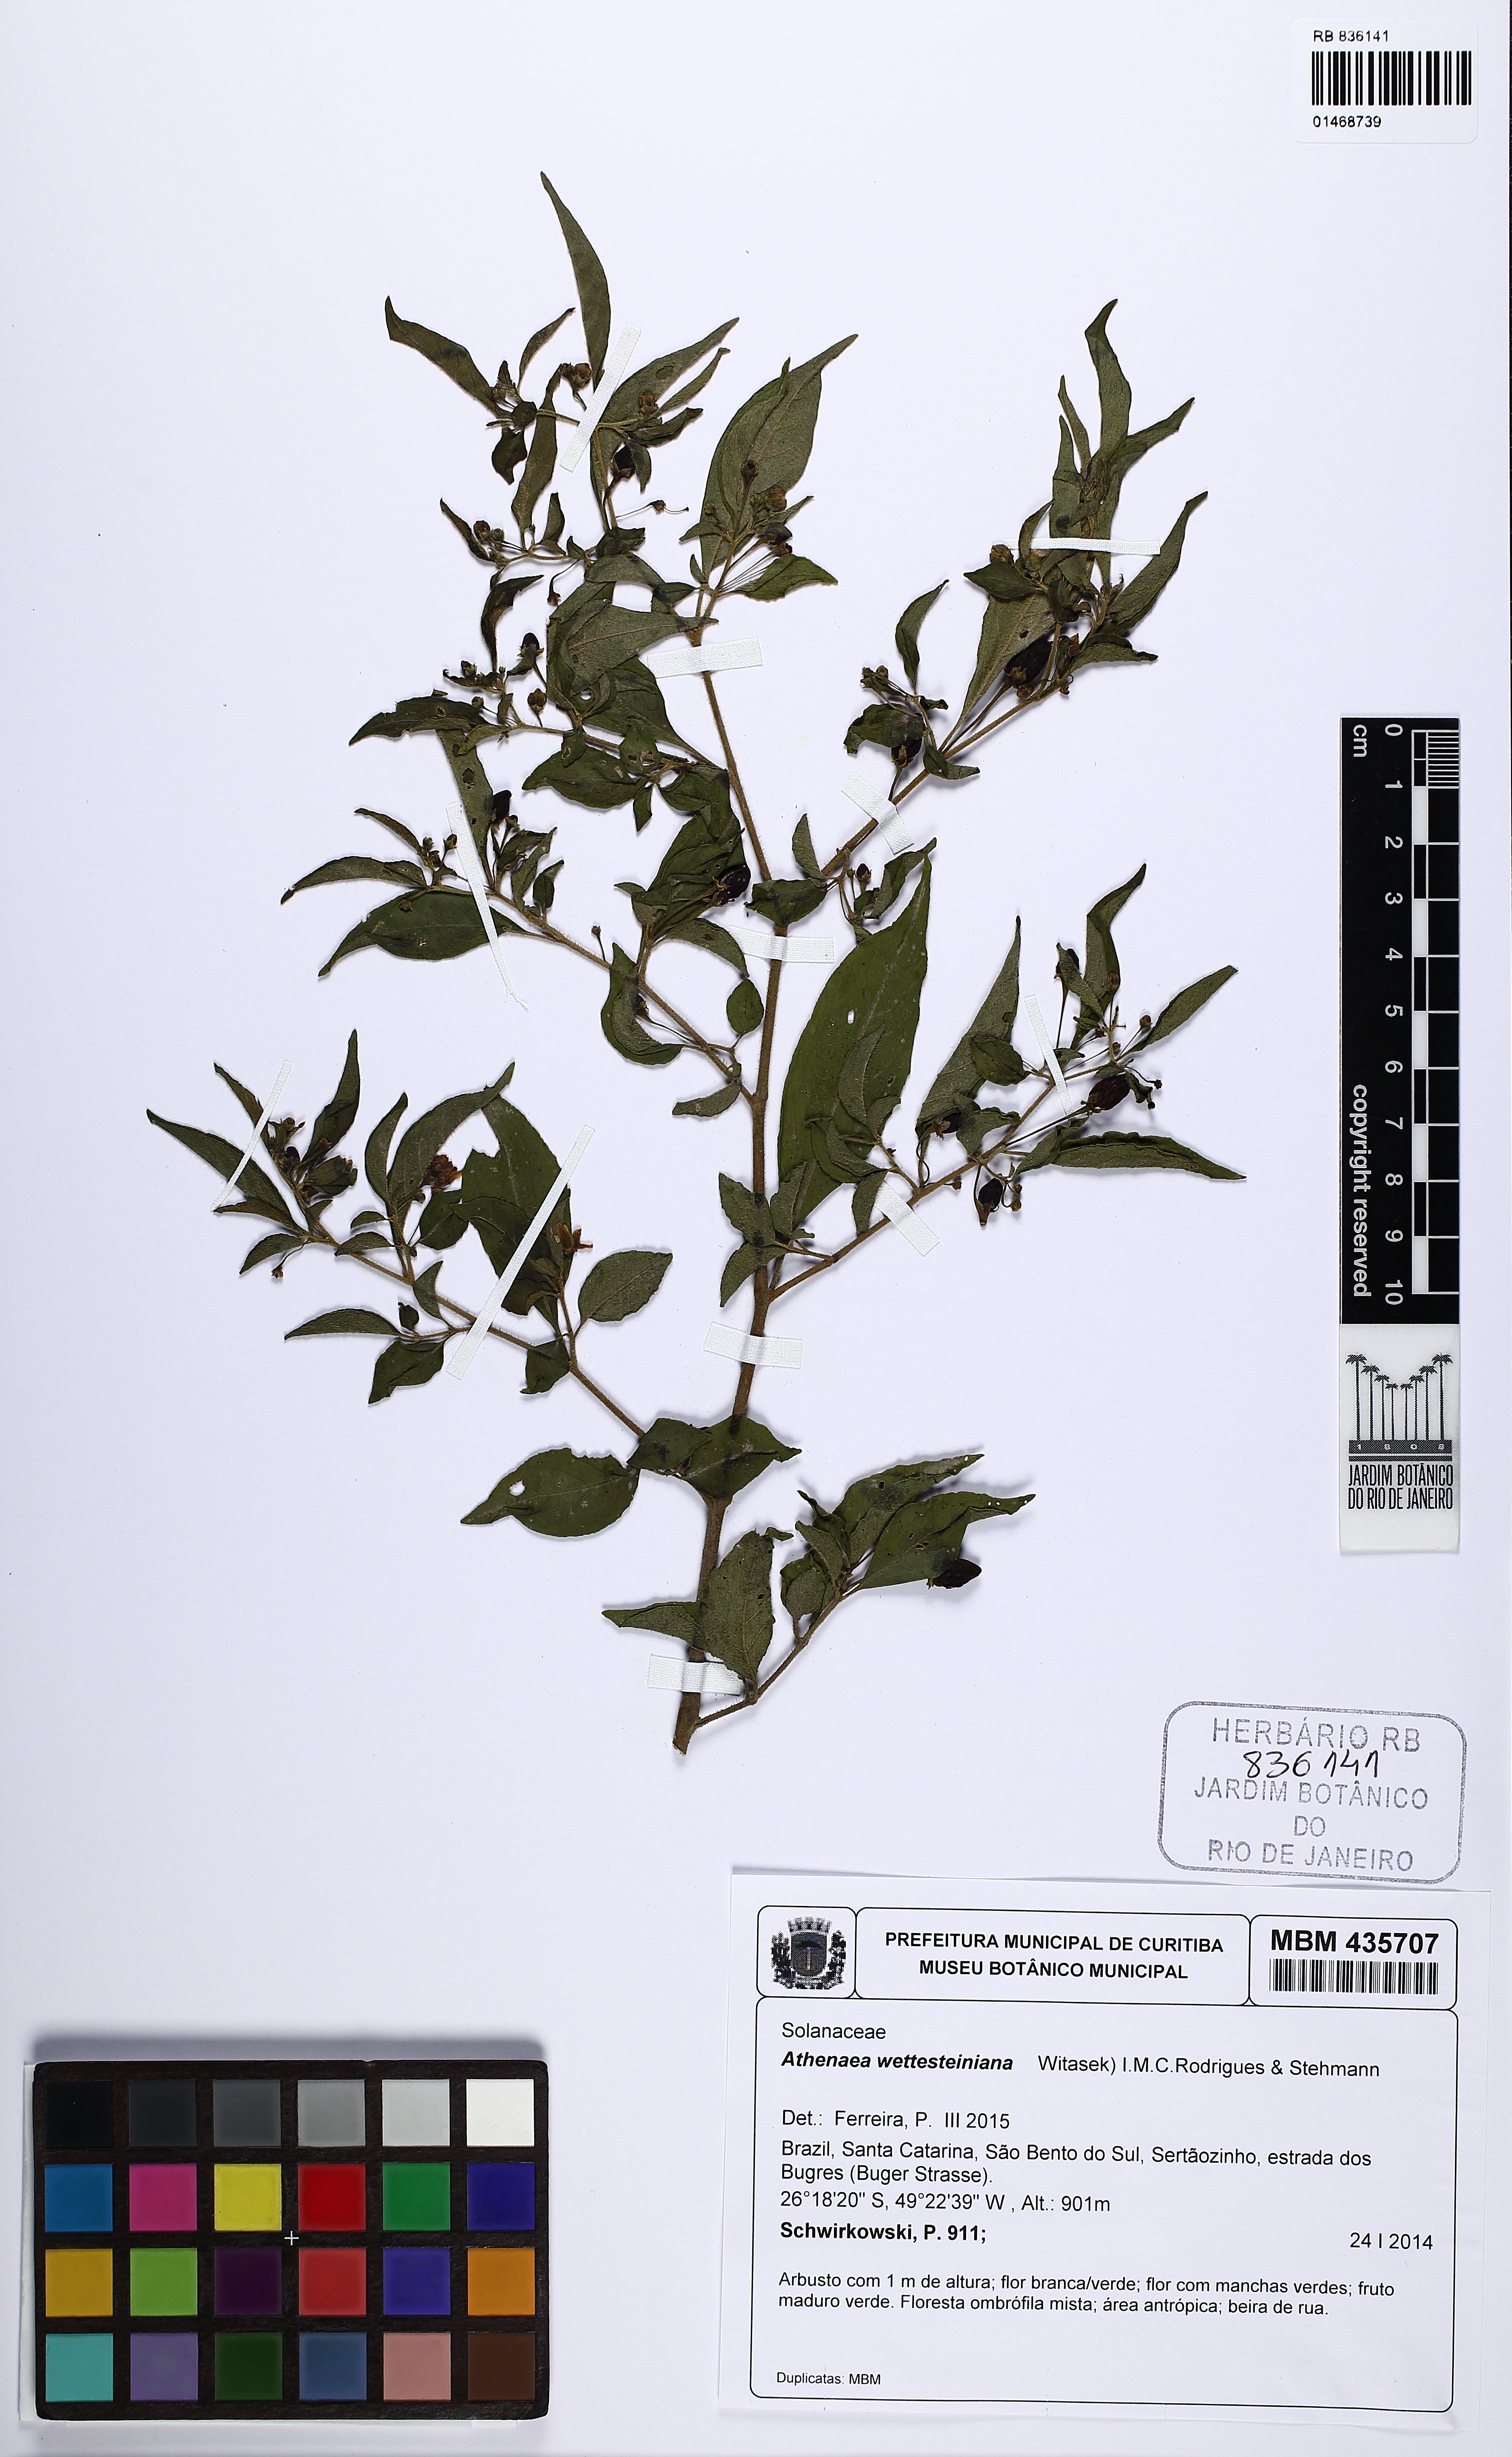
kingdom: Plantae
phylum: Tracheophyta
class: Magnoliopsida
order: Solanales
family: Solanaceae
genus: Athenaea
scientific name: Athenaea wettsteiniana
